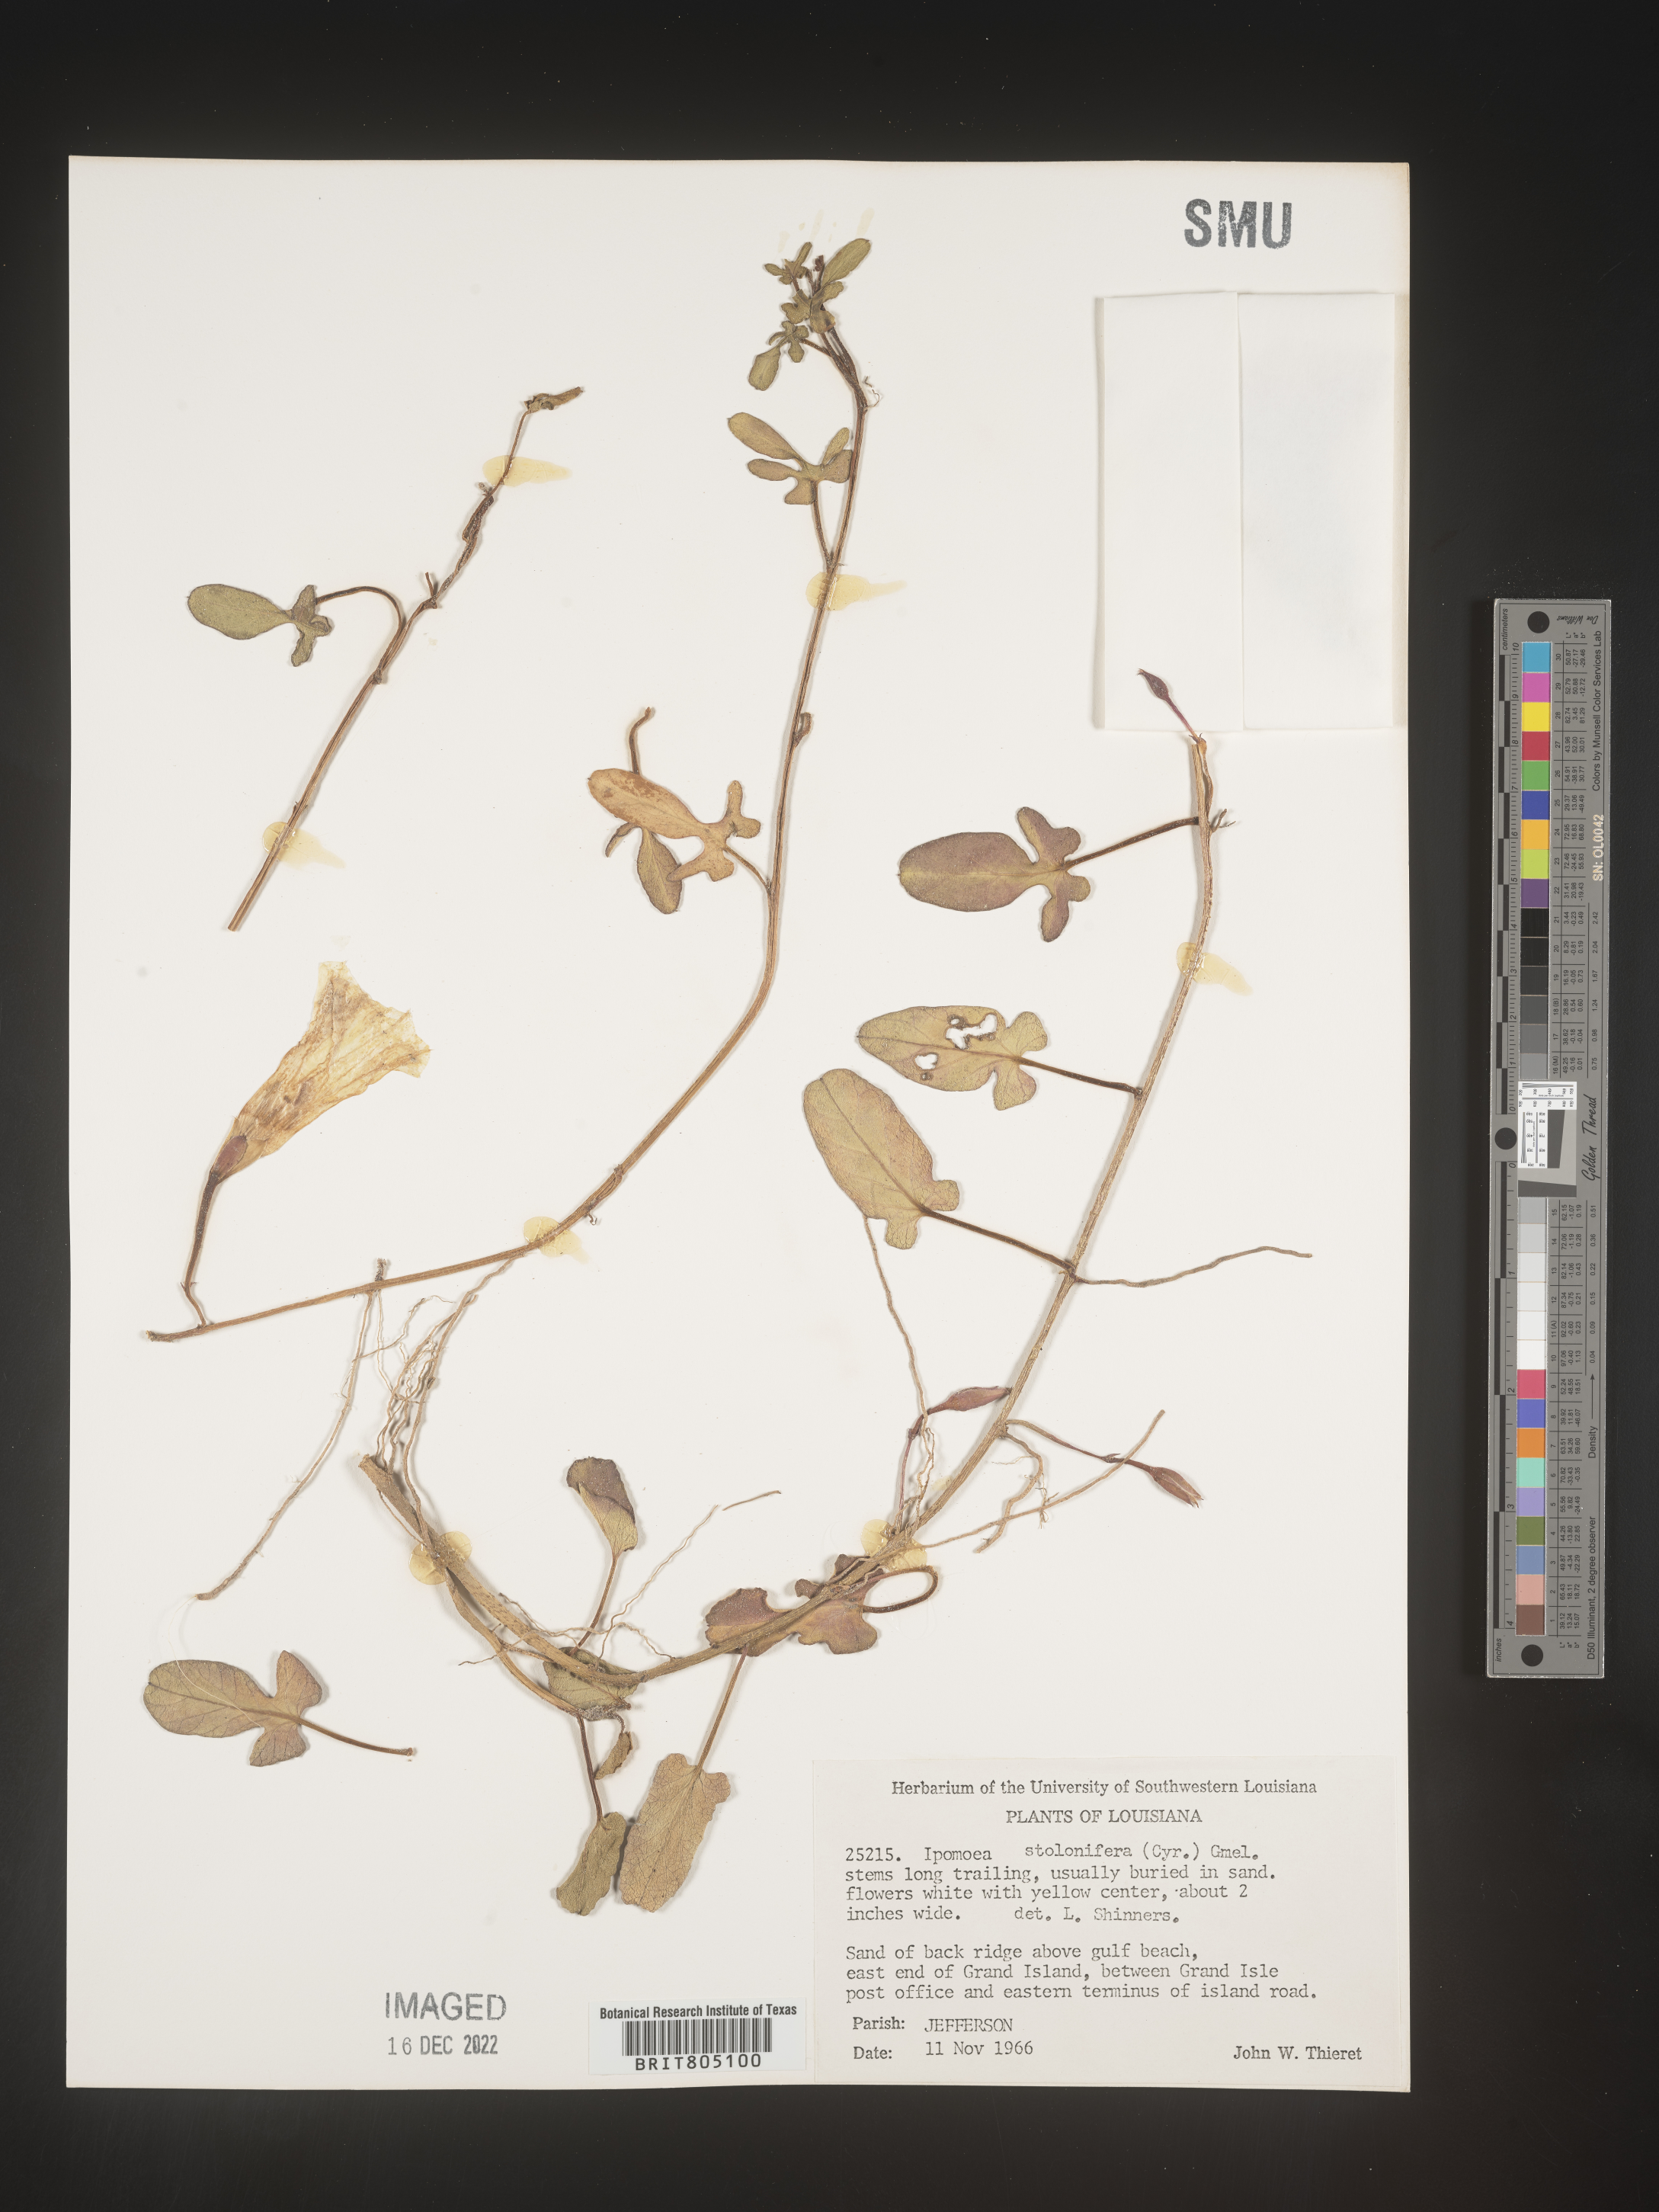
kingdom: Plantae
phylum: Tracheophyta
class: Magnoliopsida
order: Solanales
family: Convolvulaceae
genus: Ipomoea
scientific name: Ipomoea imperati
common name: Fiddle-leaf morning-glory
